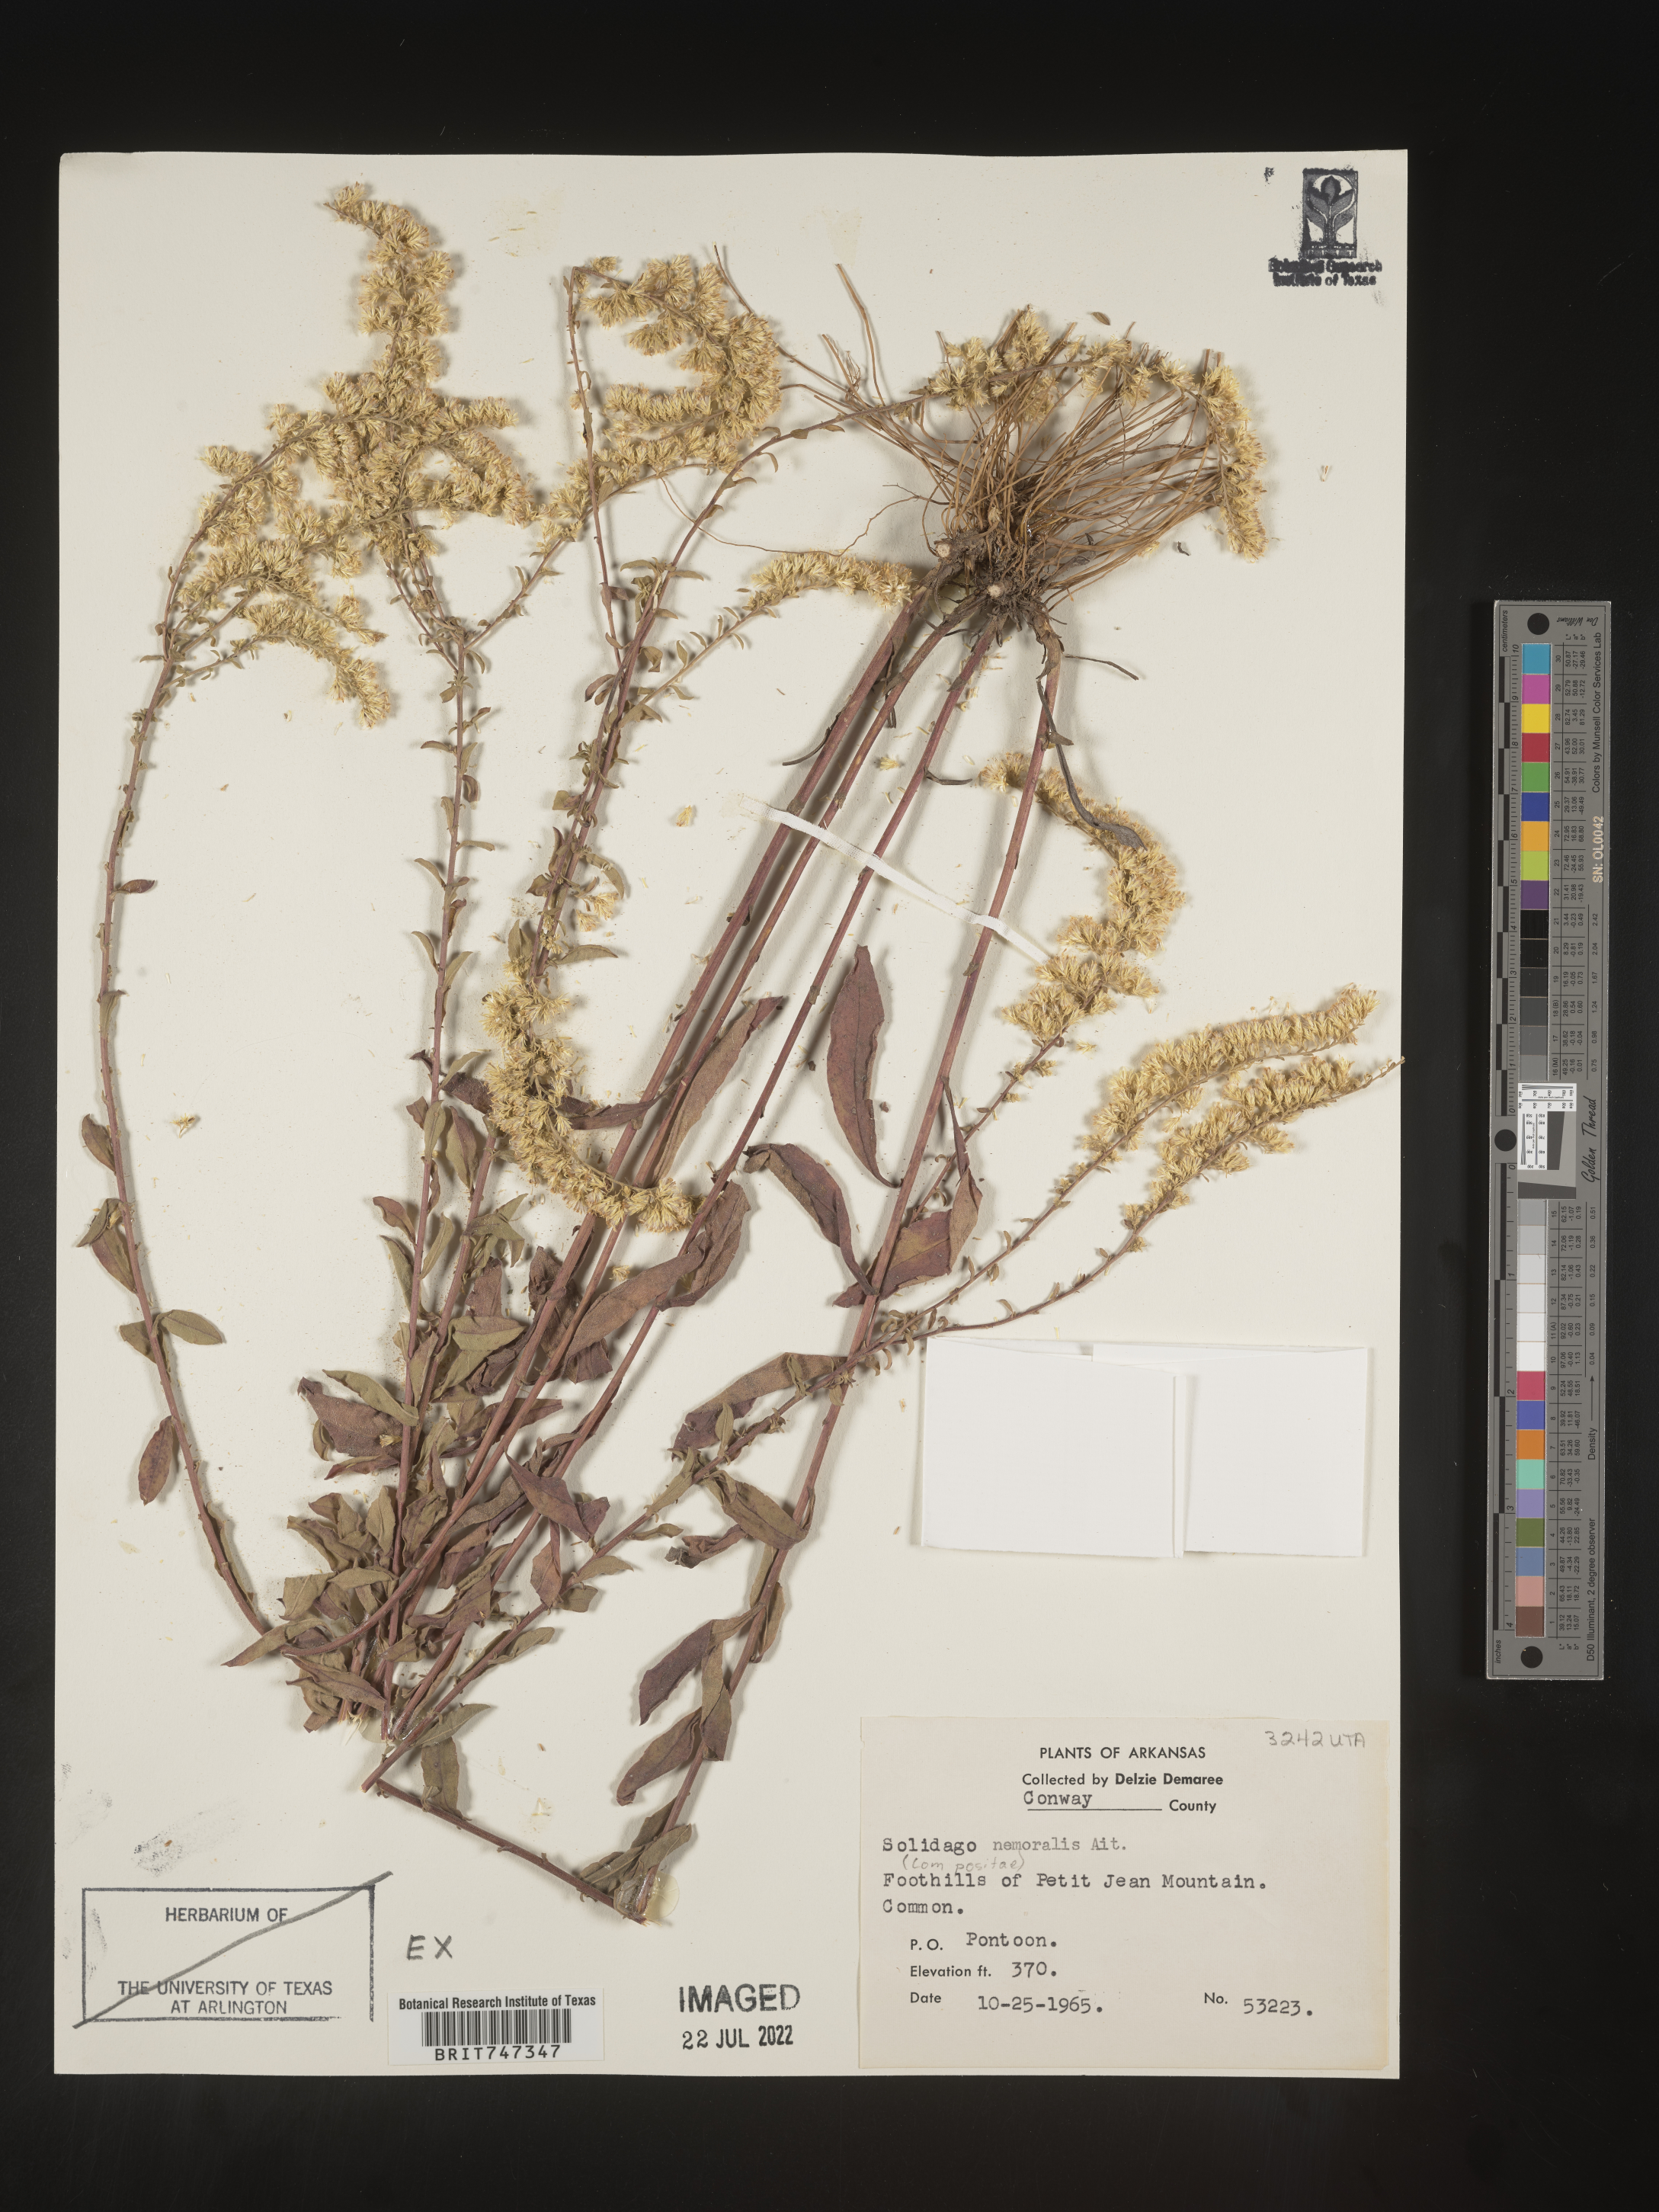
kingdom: Plantae
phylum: Tracheophyta
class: Magnoliopsida
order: Asterales
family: Asteraceae
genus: Solidago
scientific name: Solidago nemoralis
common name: Grey goldenrod
